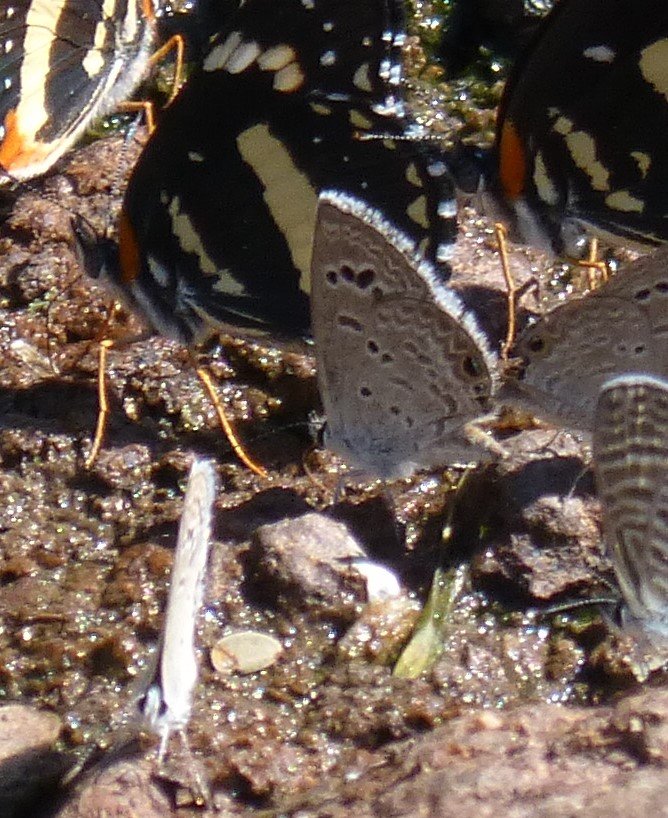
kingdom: Animalia
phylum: Arthropoda
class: Insecta
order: Lepidoptera
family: Lycaenidae
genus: Echinargus
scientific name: Echinargus isola
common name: Reakirt's Blue
